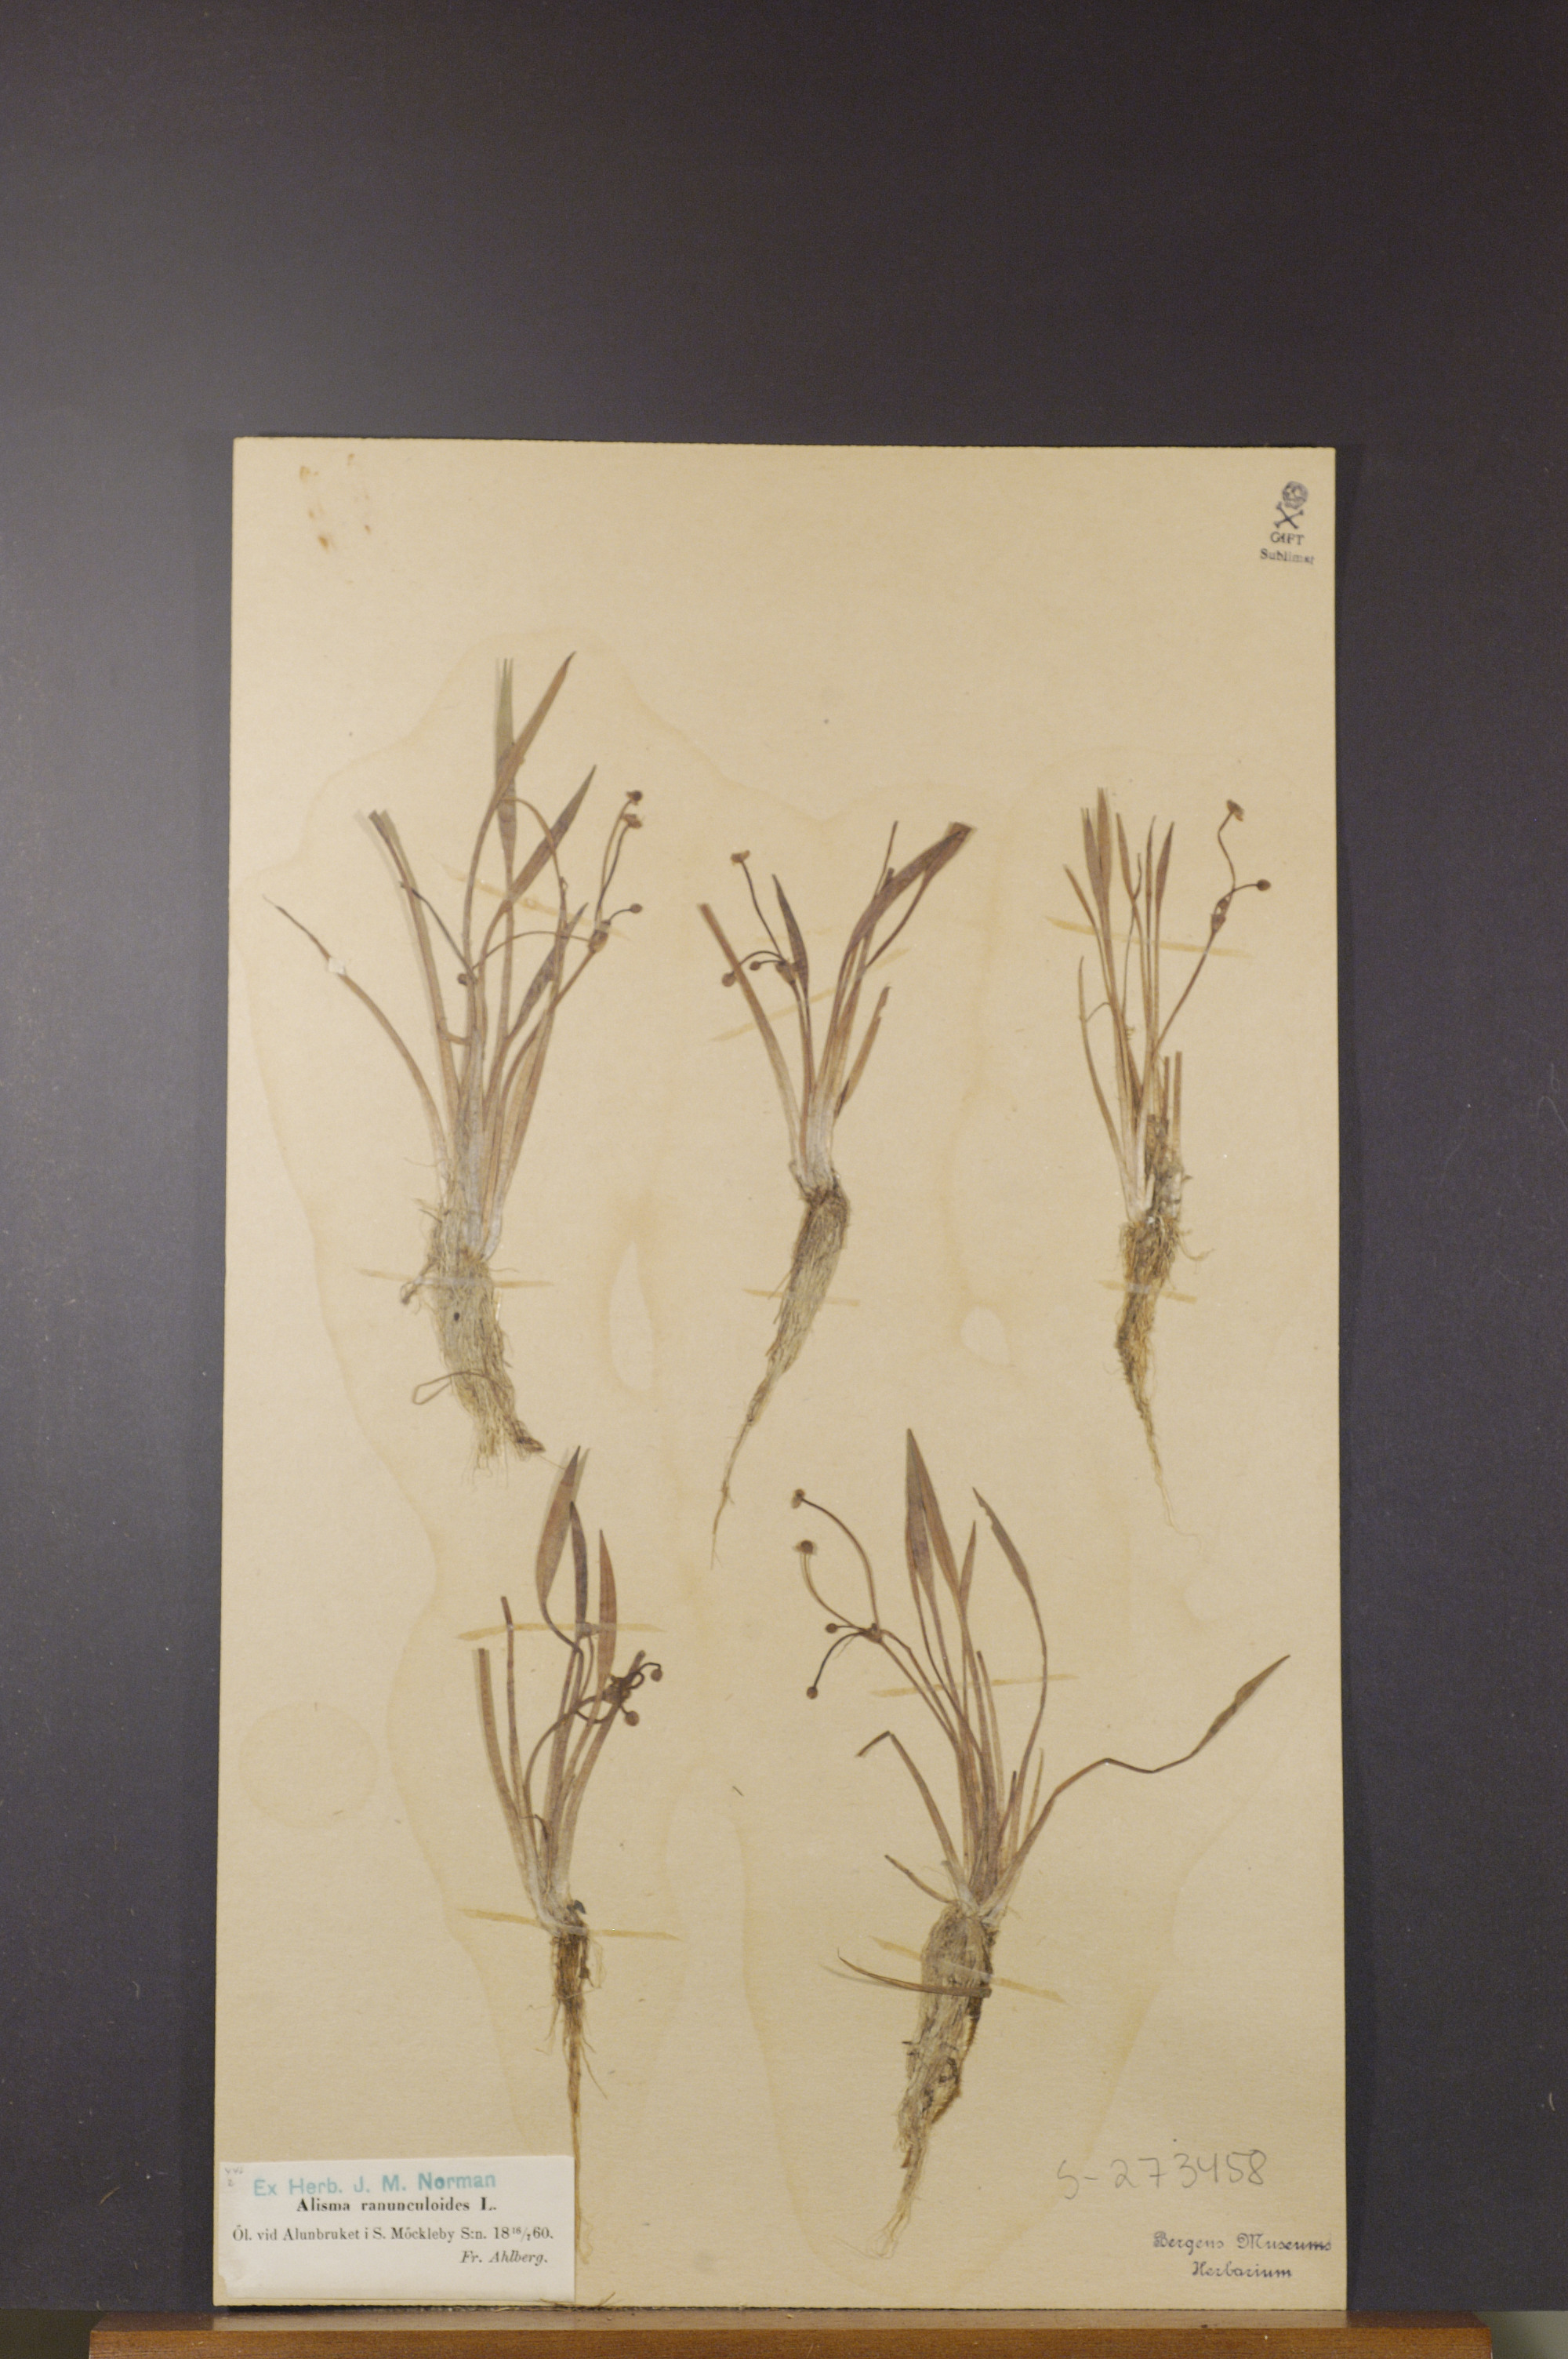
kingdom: Plantae
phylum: Tracheophyta
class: Liliopsida
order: Alismatales
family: Alismataceae
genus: Baldellia
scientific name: Baldellia ranunculoides
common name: Lesser water-plantain
